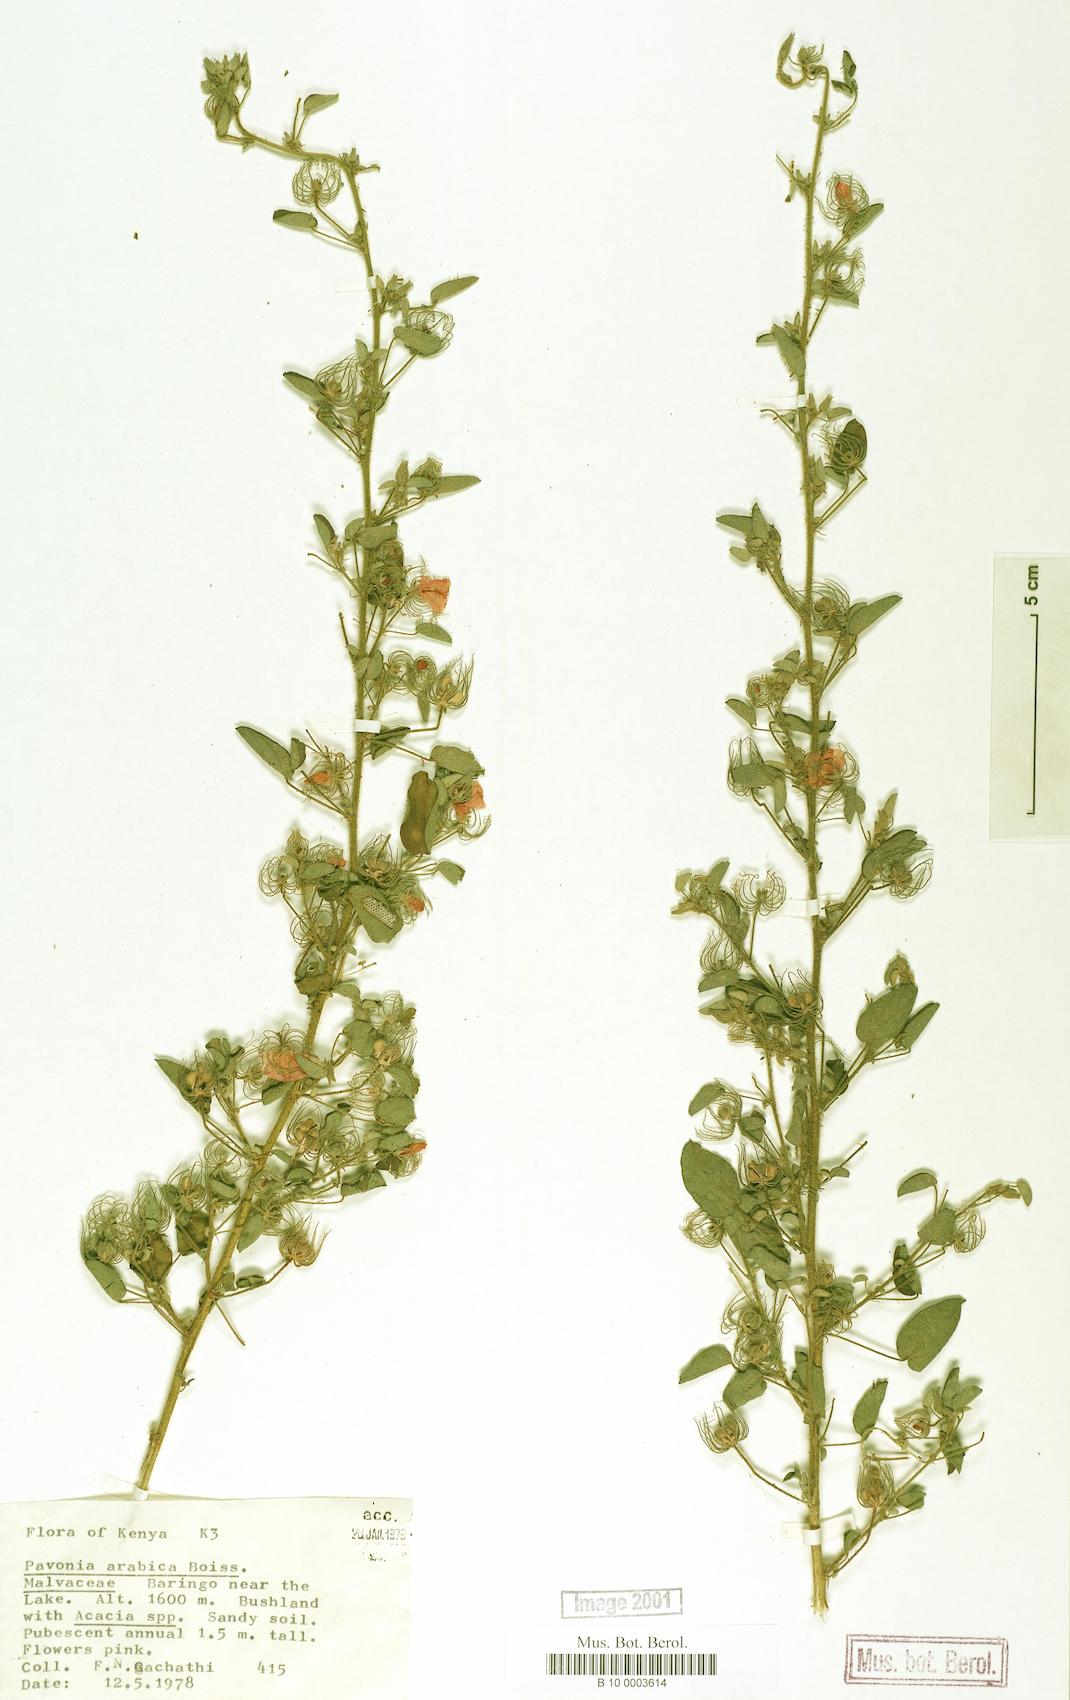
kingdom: Plantae
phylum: Tracheophyta
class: Magnoliopsida
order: Malvales
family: Malvaceae
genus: Pavonia
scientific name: Pavonia arabica
